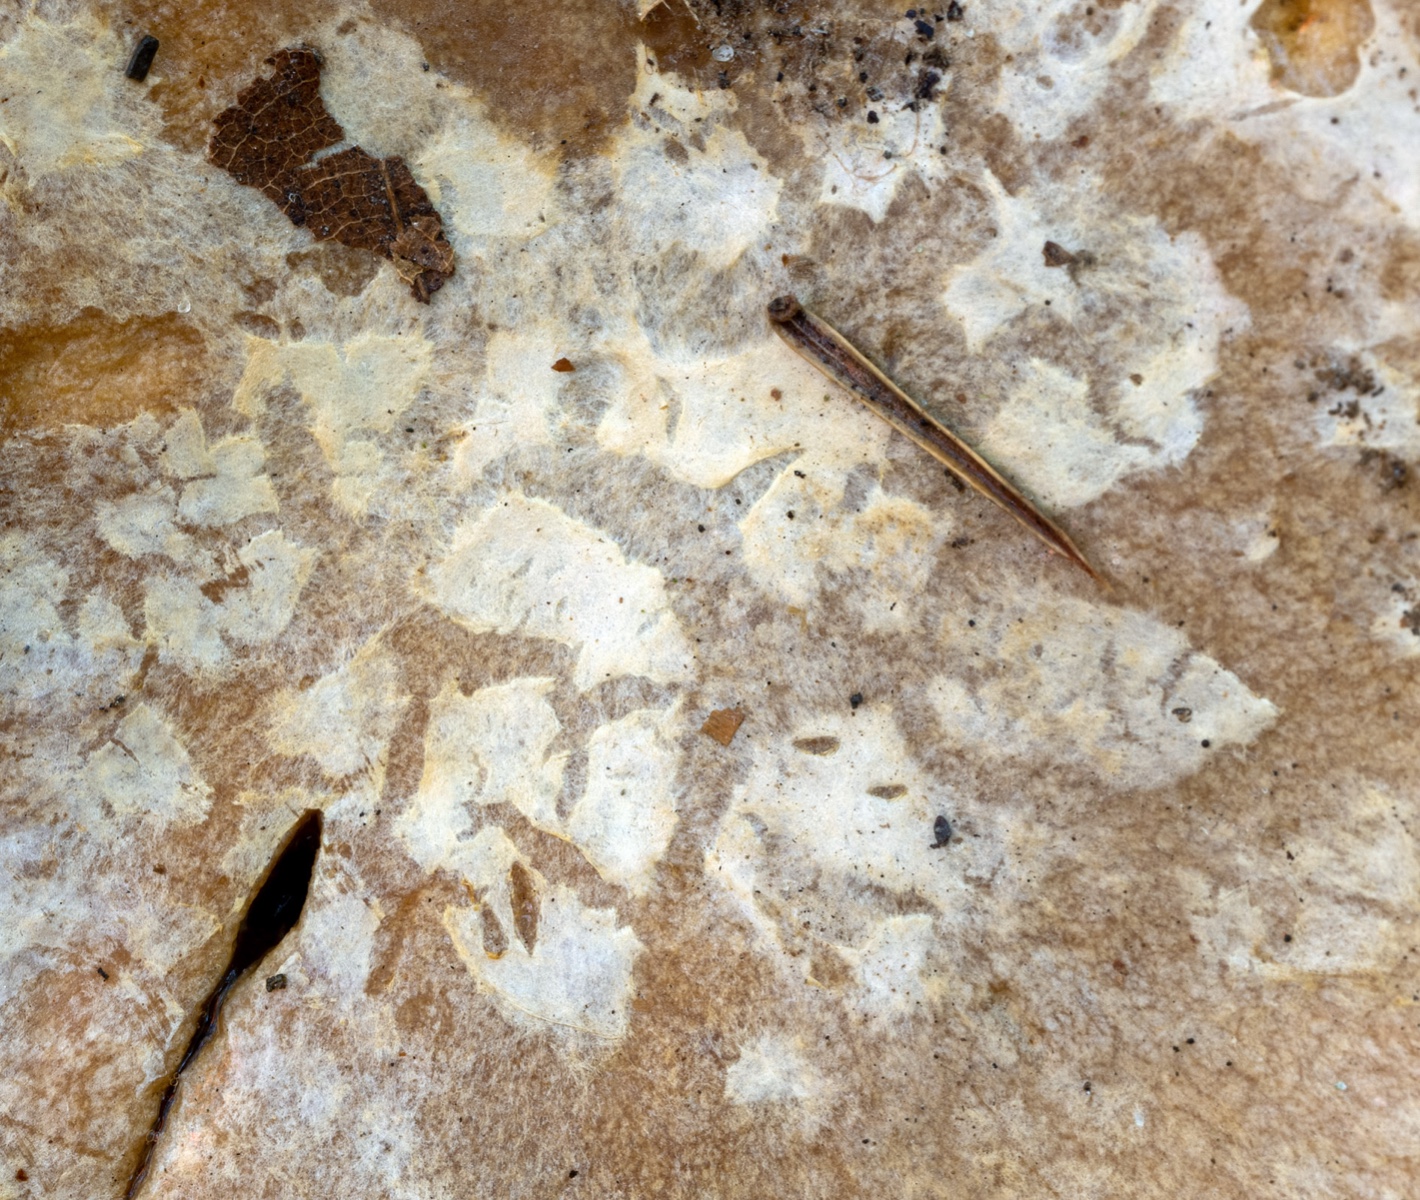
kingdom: Fungi
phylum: Basidiomycota
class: Agaricomycetes
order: Agaricales
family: Cortinariaceae
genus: Cortinarius
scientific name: Cortinarius foetens
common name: stribet slørhat
